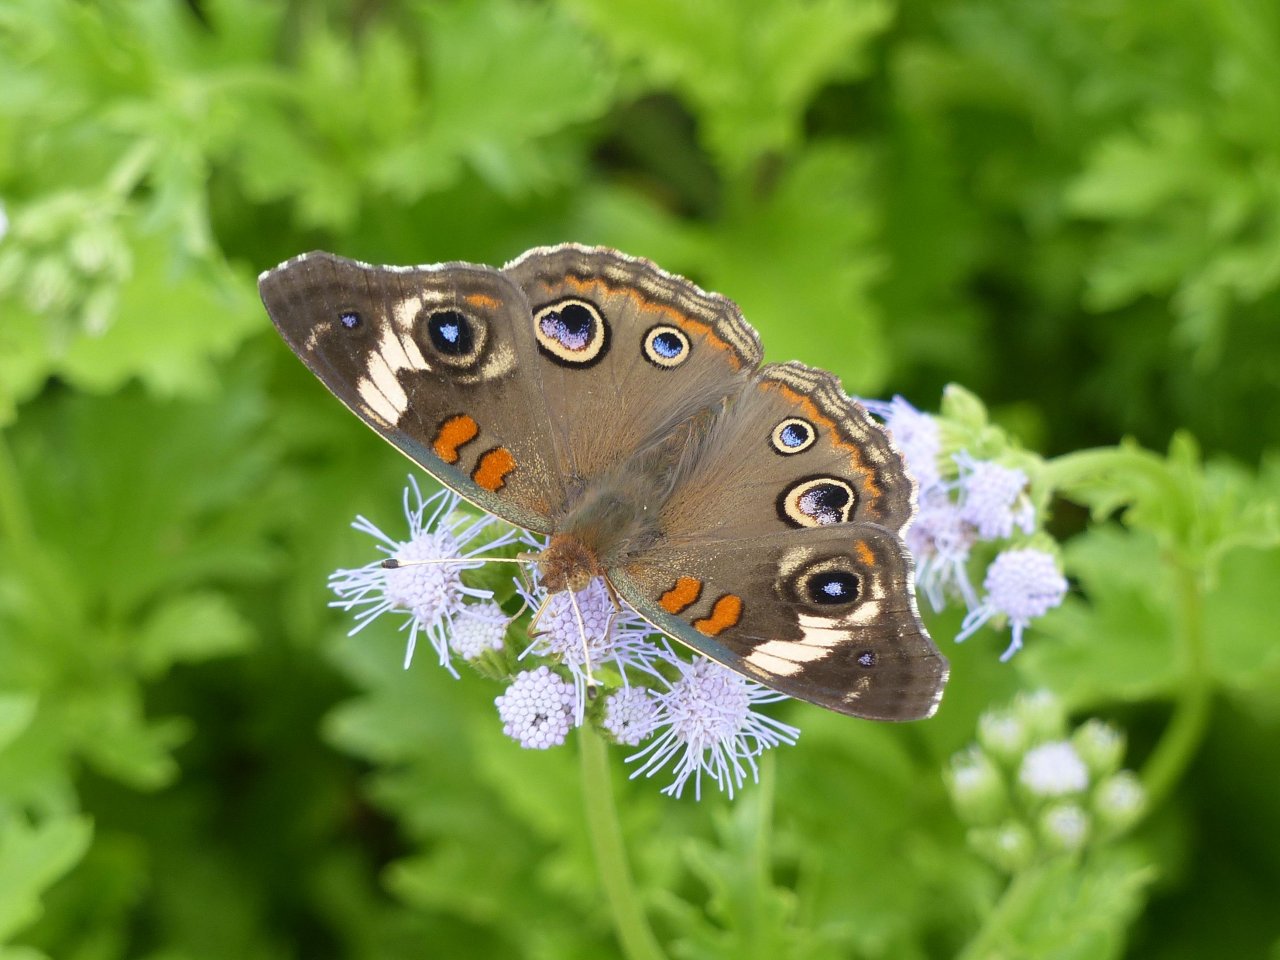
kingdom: Animalia
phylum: Arthropoda
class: Insecta
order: Lepidoptera
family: Nymphalidae
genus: Junonia
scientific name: Junonia coenia
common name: Common Buckeye
